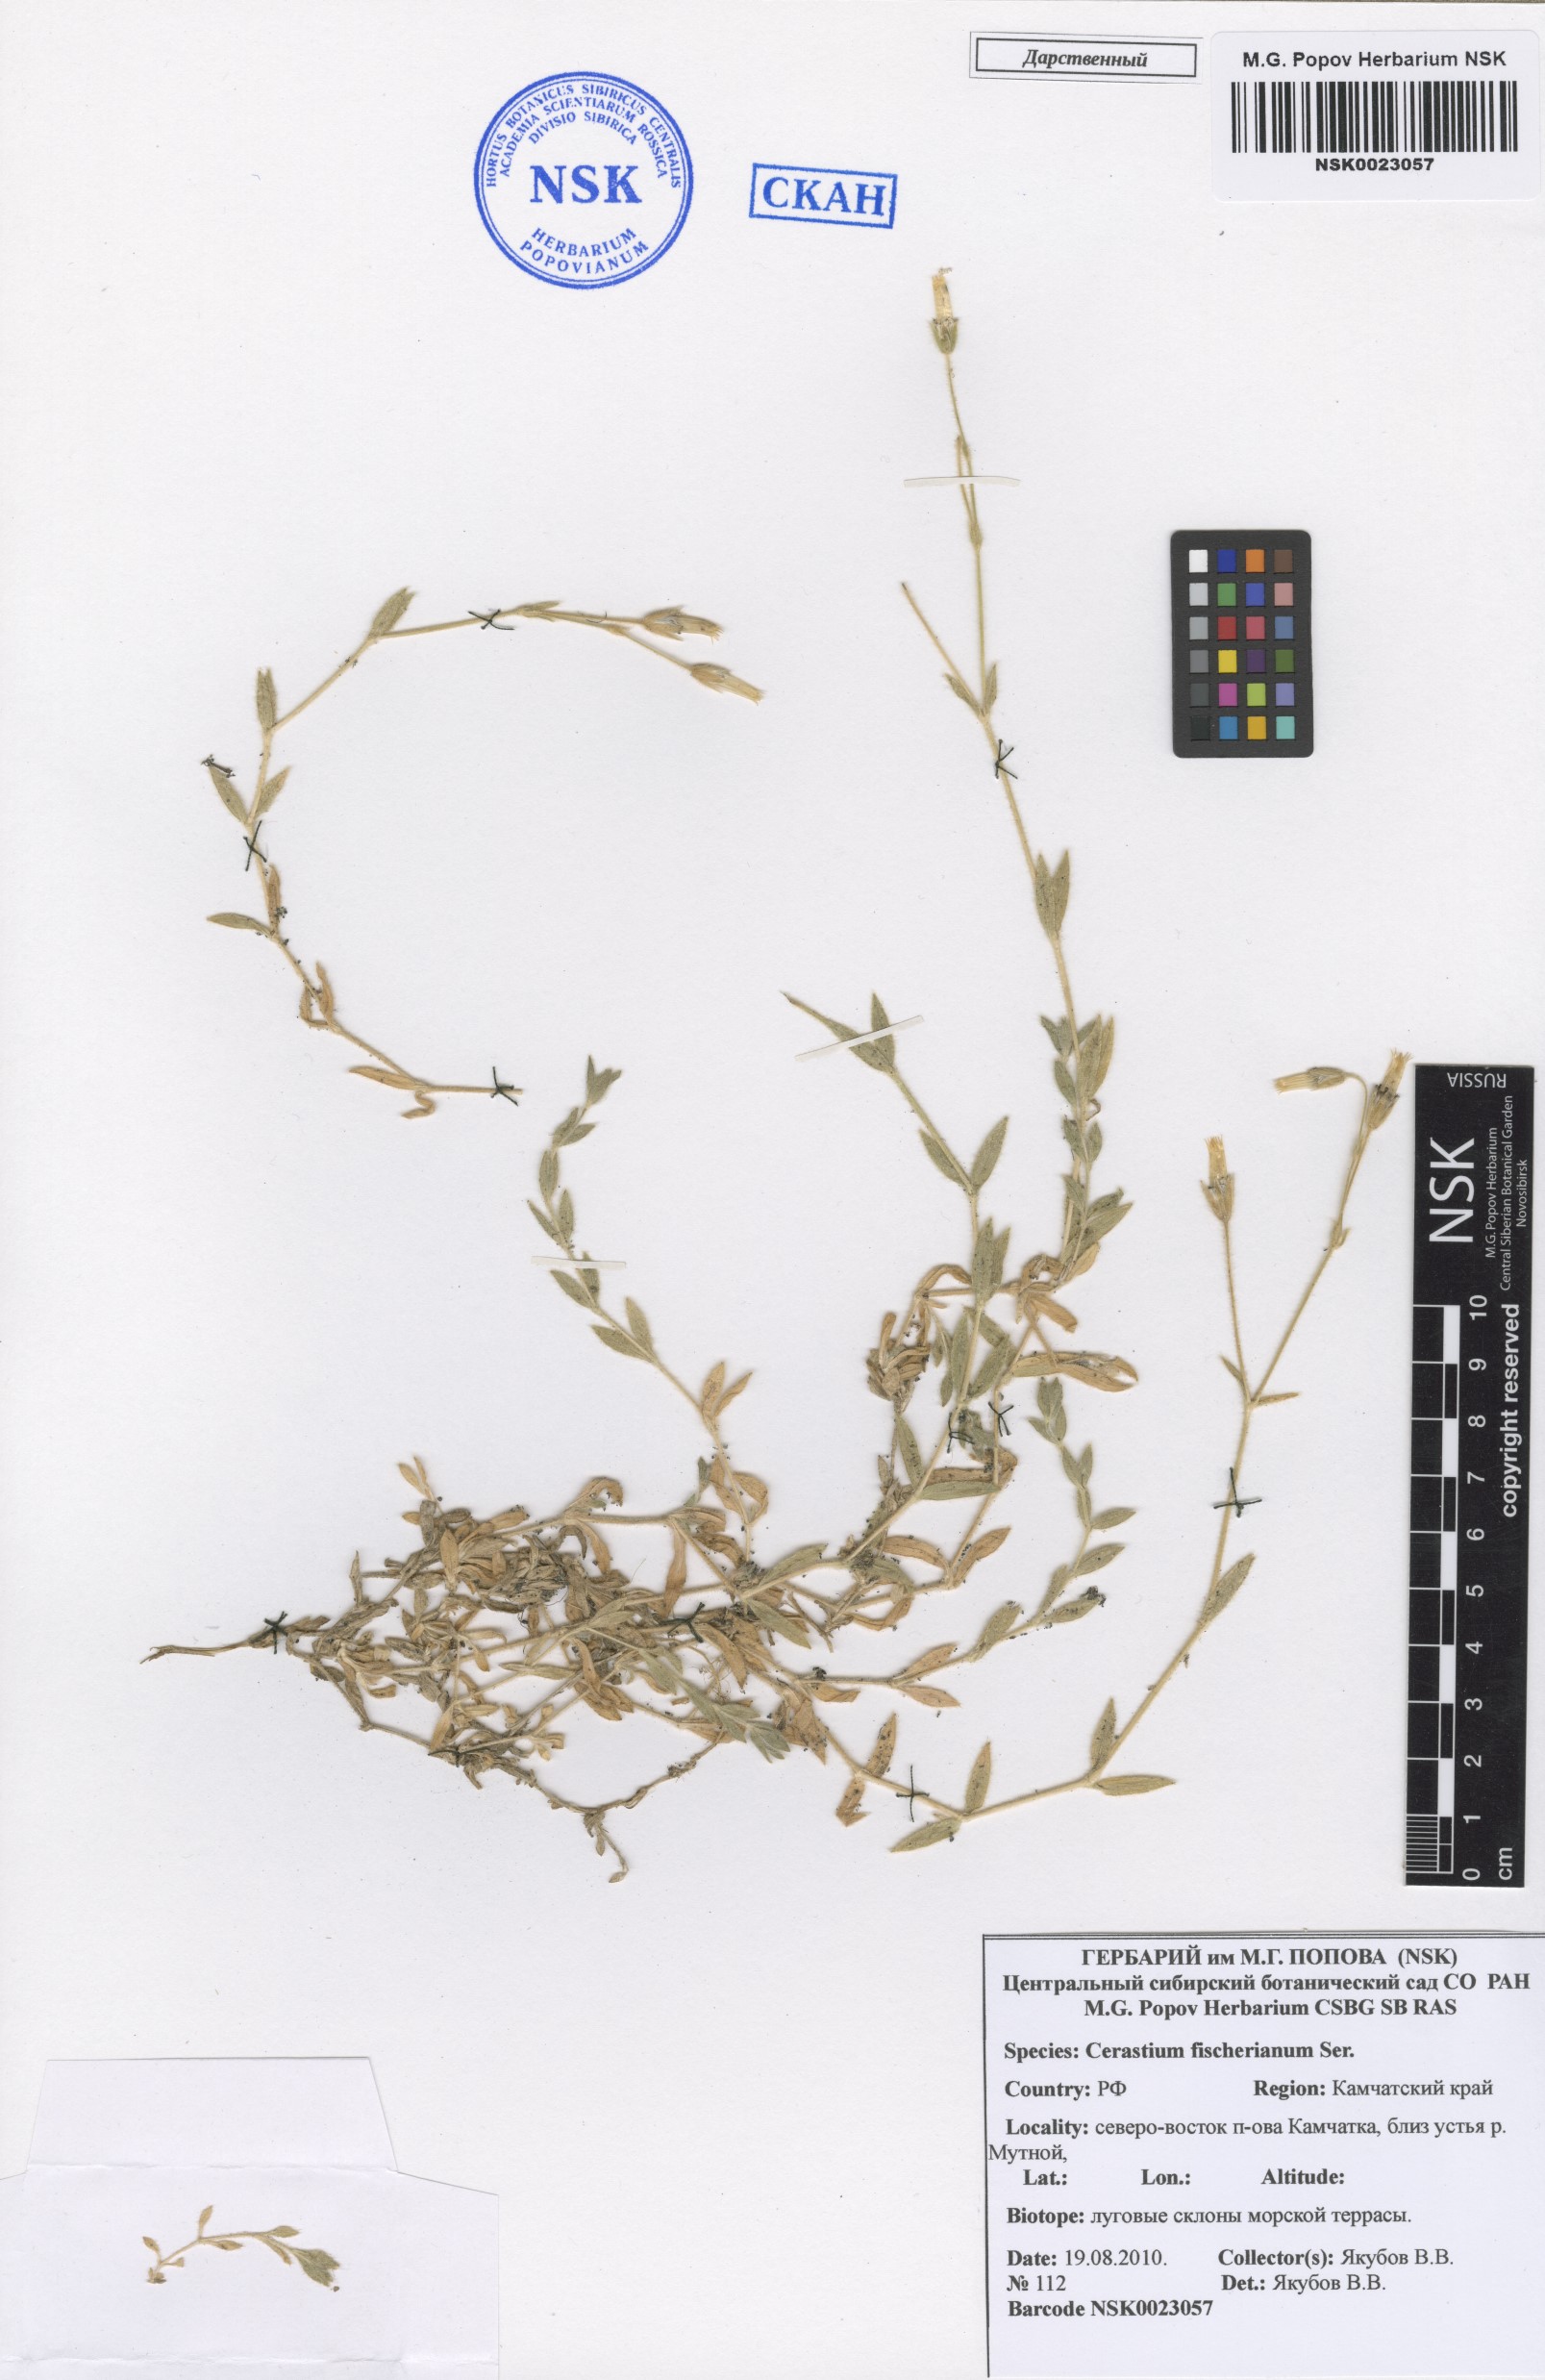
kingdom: Plantae
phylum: Tracheophyta
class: Magnoliopsida
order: Caryophyllales
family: Caryophyllaceae
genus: Cerastium
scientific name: Cerastium fischerianum
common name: Fischer's chickweed
